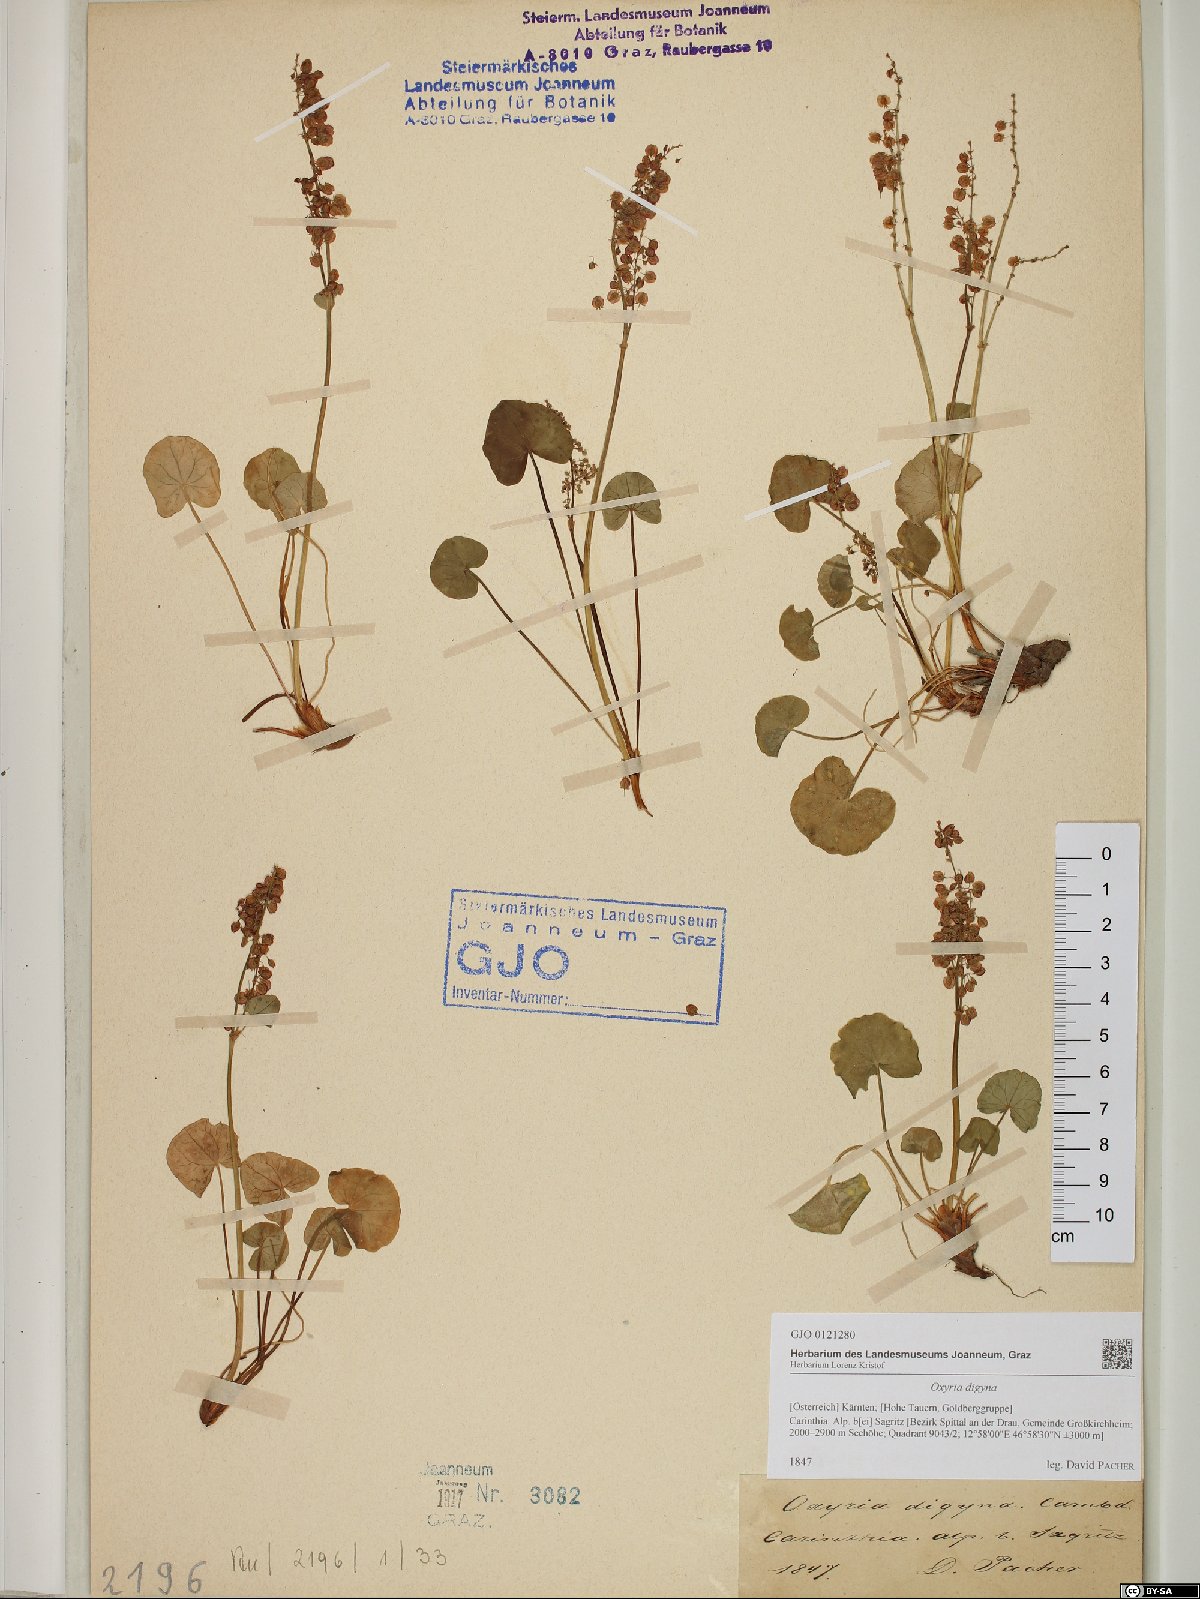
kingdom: Plantae
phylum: Tracheophyta
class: Magnoliopsida
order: Caryophyllales
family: Polygonaceae
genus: Oxyria
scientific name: Oxyria digyna
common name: Alpine mountain-sorrel
